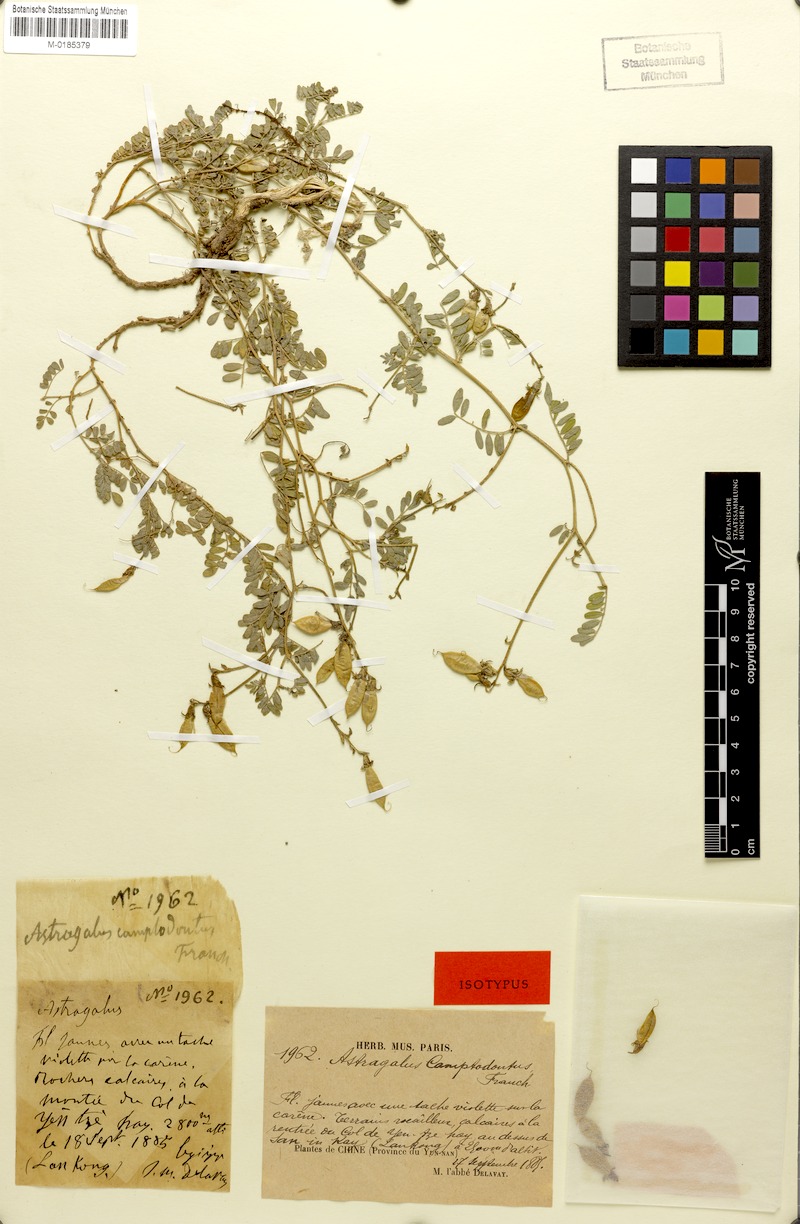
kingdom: Plantae
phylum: Tracheophyta
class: Magnoliopsida
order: Fabales
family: Fabaceae
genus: Phyllolobium
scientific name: Phyllolobium camptodontum
